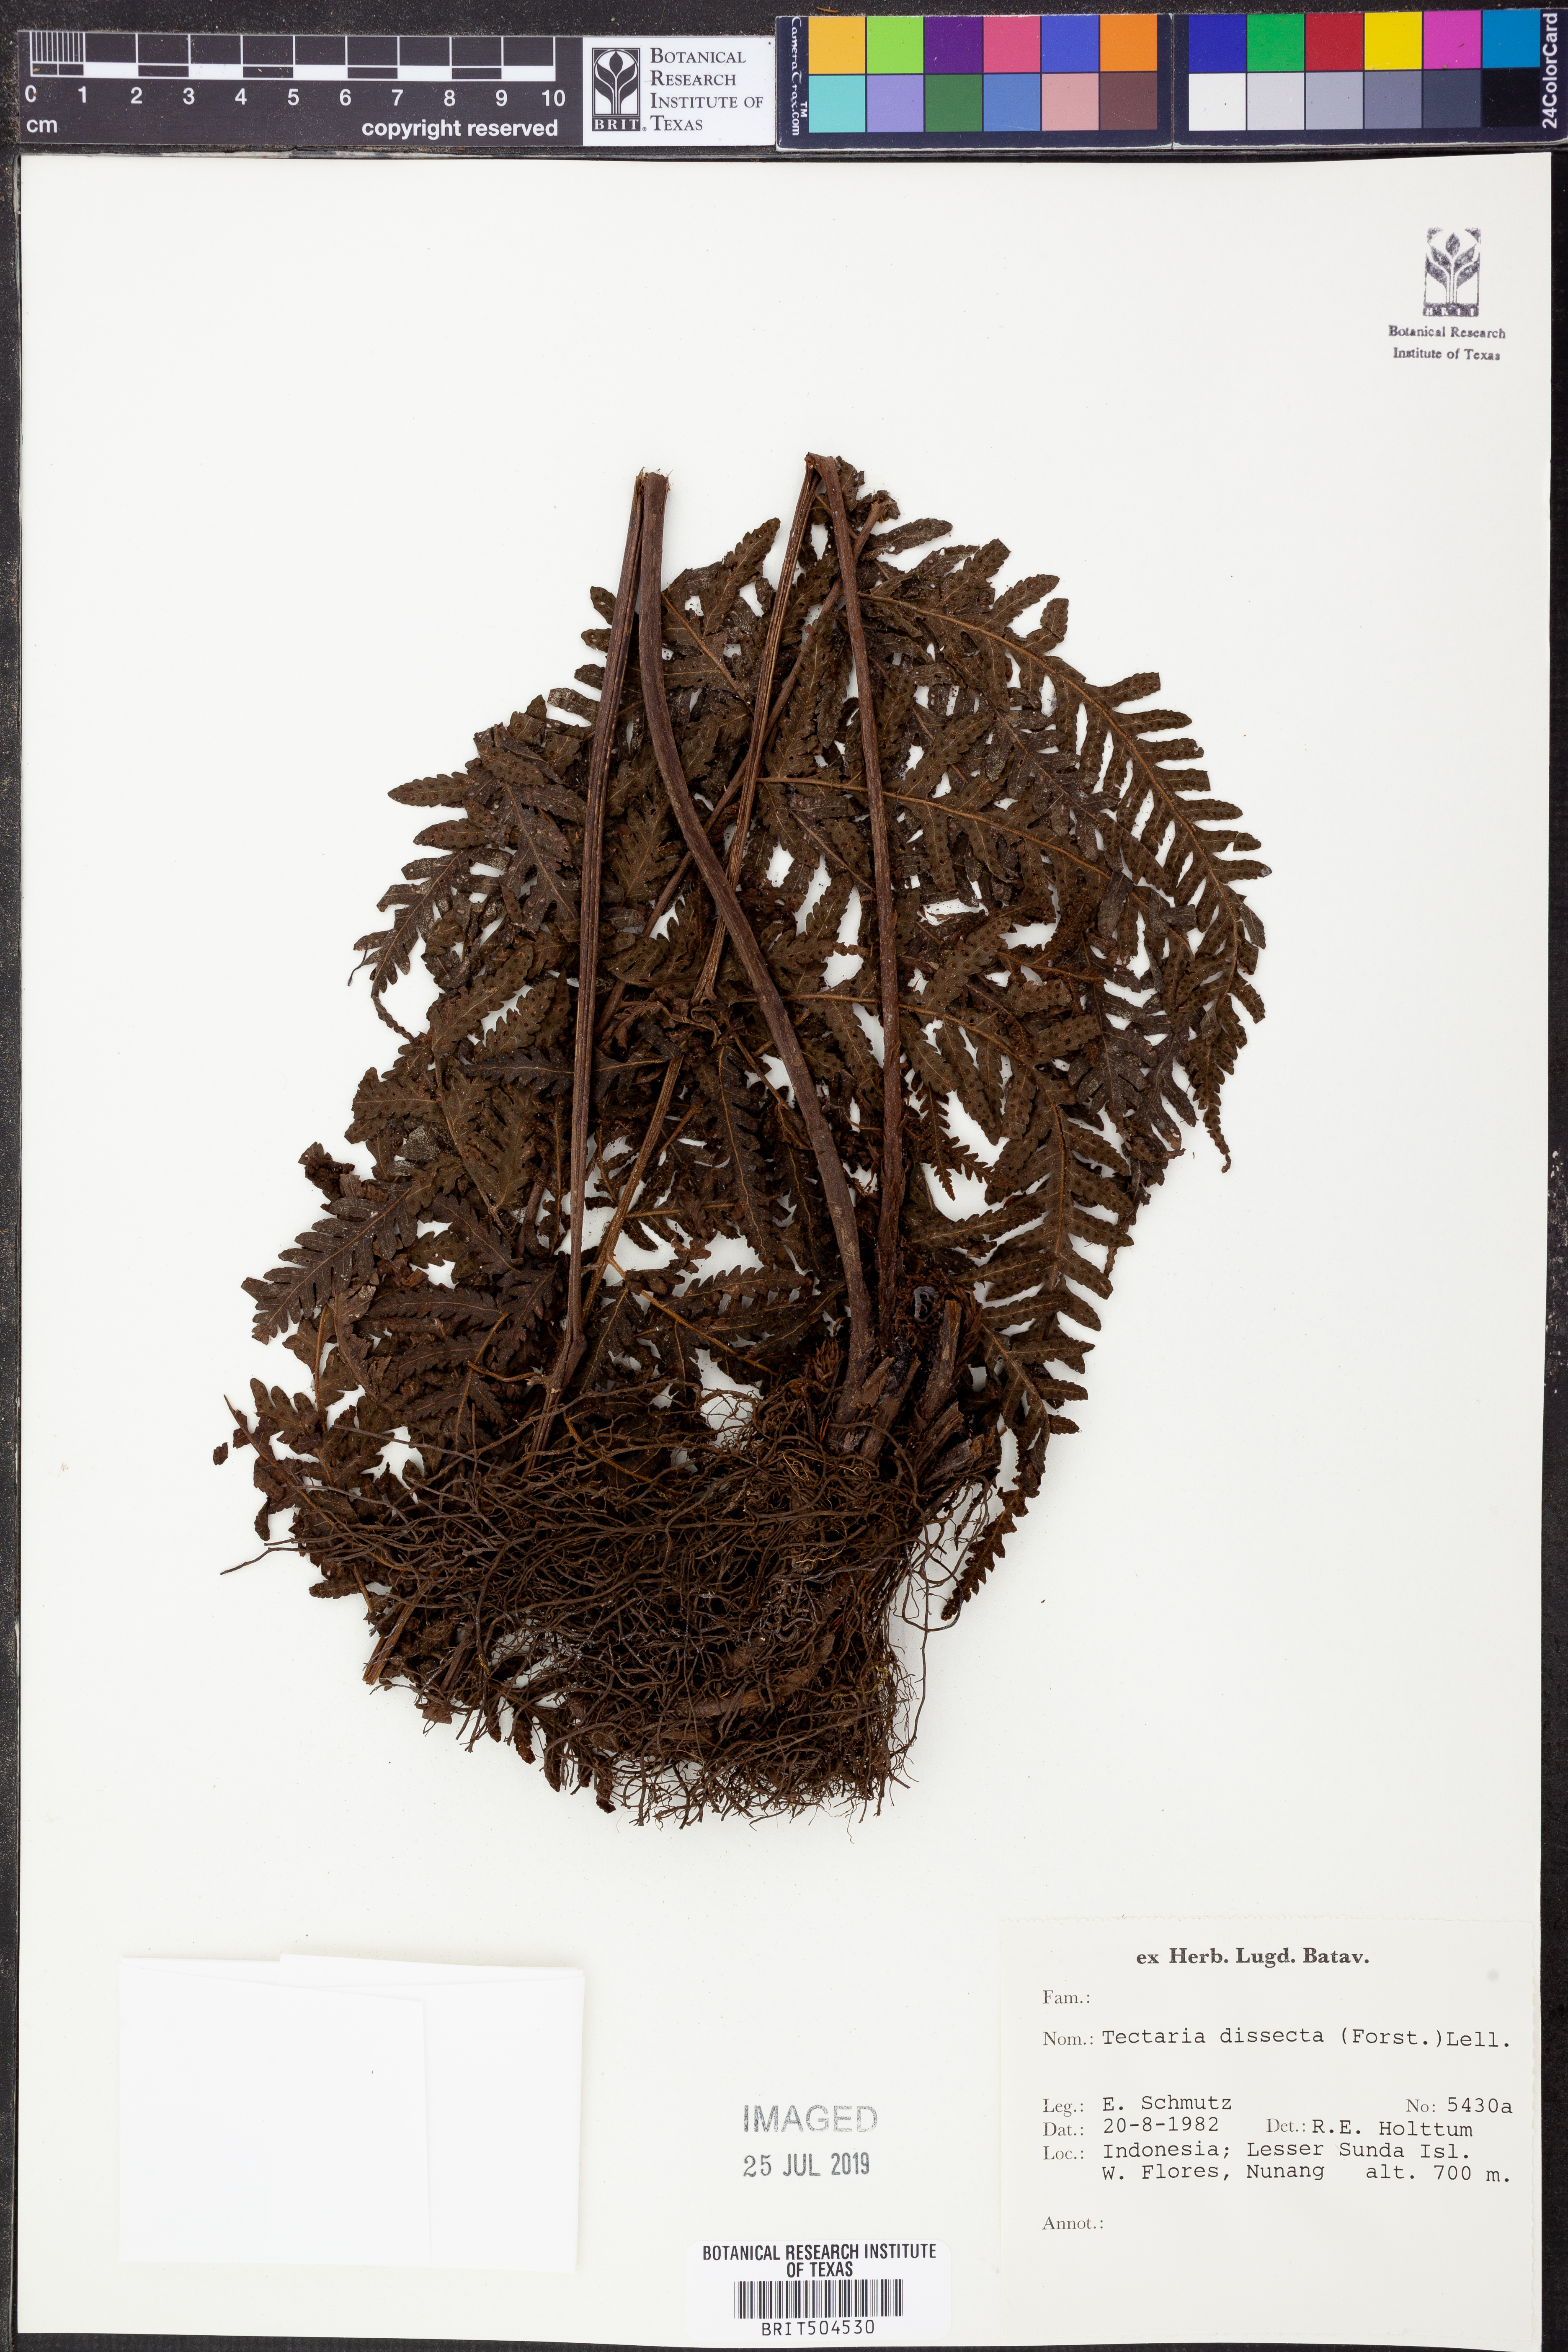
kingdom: Plantae
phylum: Tracheophyta
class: Polypodiopsida
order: Polypodiales
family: Tectariaceae
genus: Tectaria
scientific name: Tectaria dissecta
